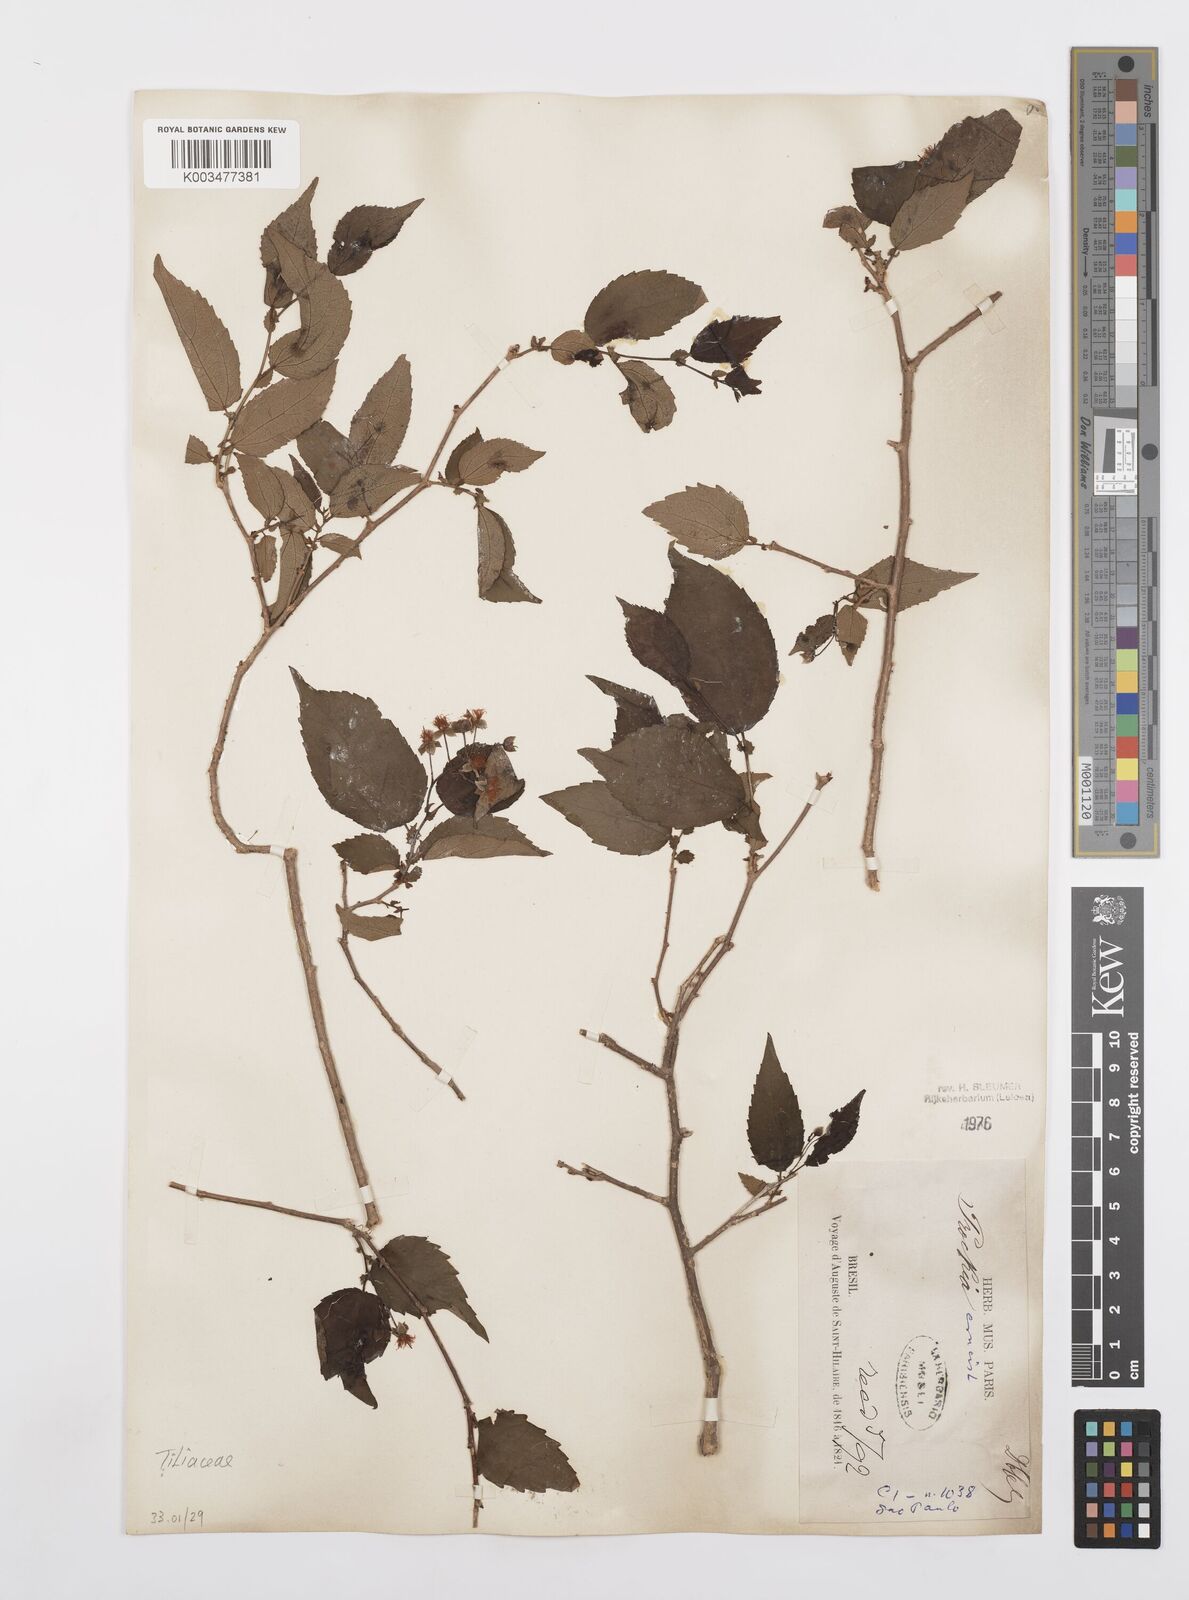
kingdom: Plantae
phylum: Tracheophyta
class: Magnoliopsida
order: Malpighiales
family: Salicaceae
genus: Prockia
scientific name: Prockia crucis
